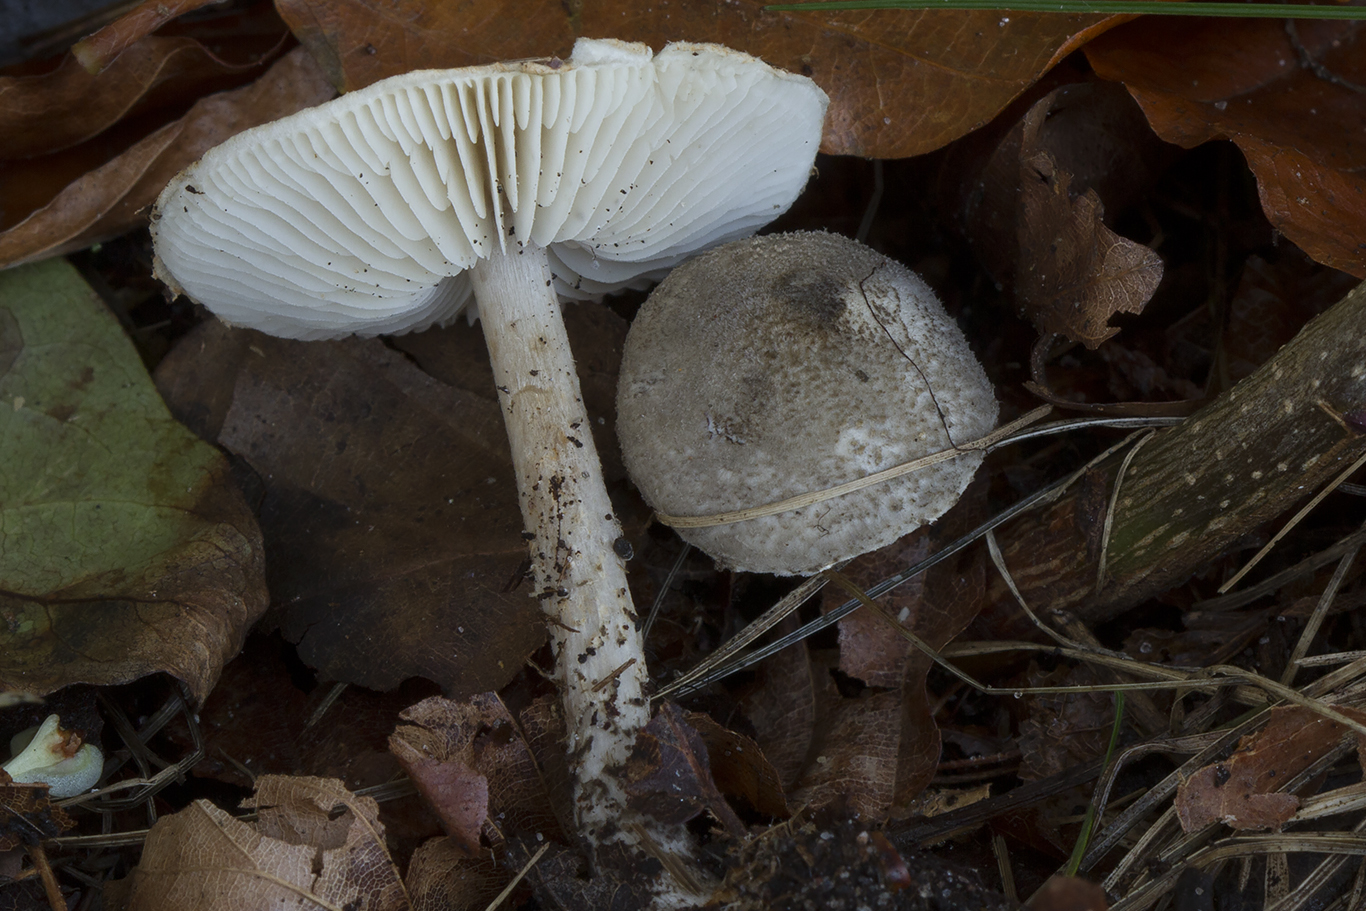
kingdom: Fungi
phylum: Basidiomycota
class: Agaricomycetes
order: Agaricales
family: Agaricaceae
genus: Lepiota
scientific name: Lepiota griseovirens
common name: grågrøn parasolhat
